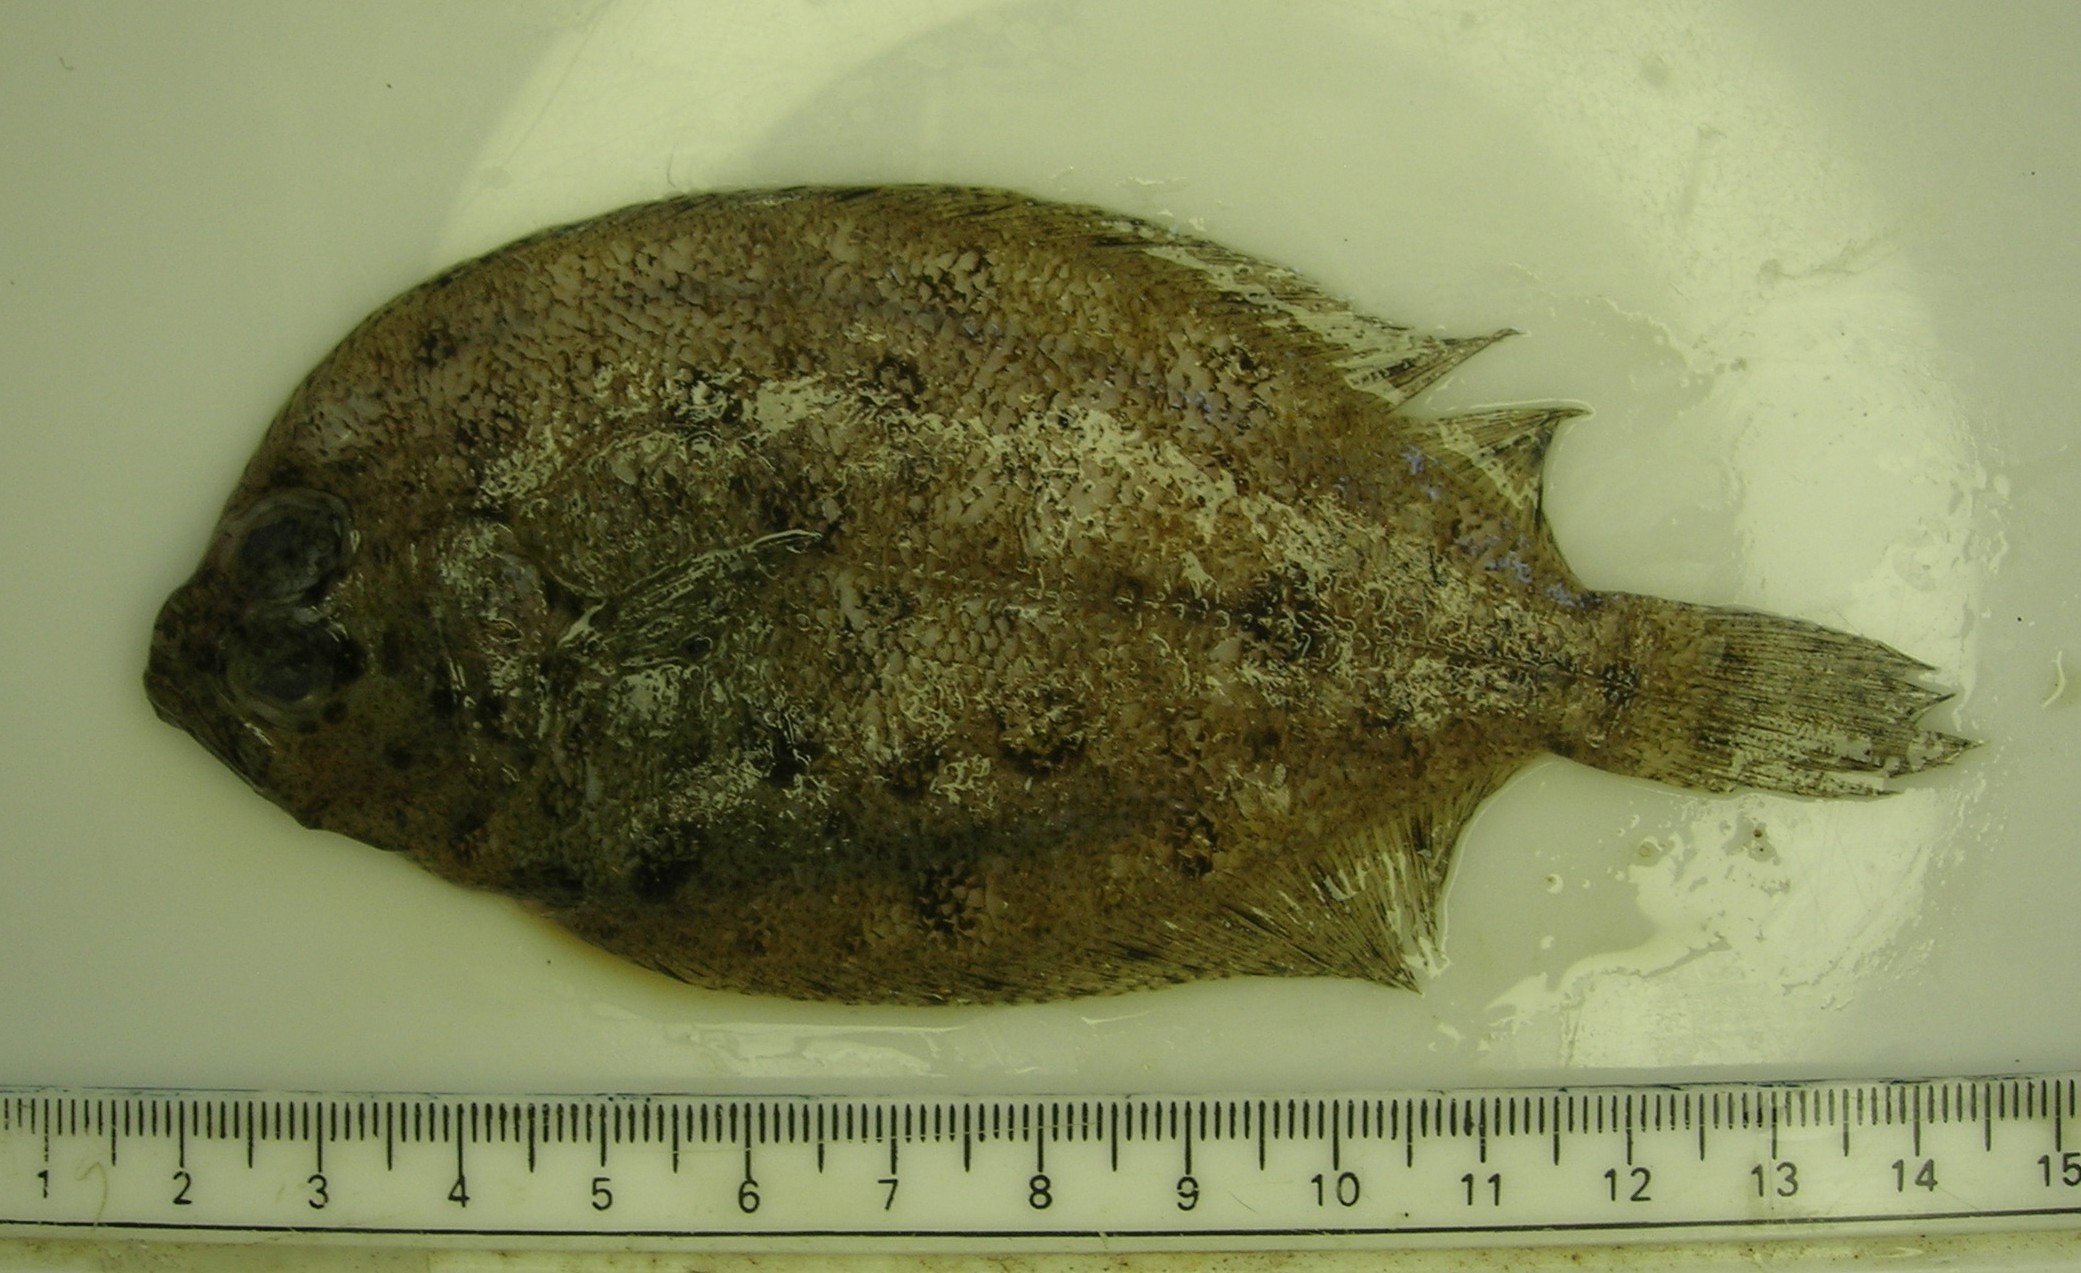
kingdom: Animalia
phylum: Chordata
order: Pleuronectiformes
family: Paralichthyidae
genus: Pseudorhombus
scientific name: Pseudorhombus natalensis
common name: Natal flounder
